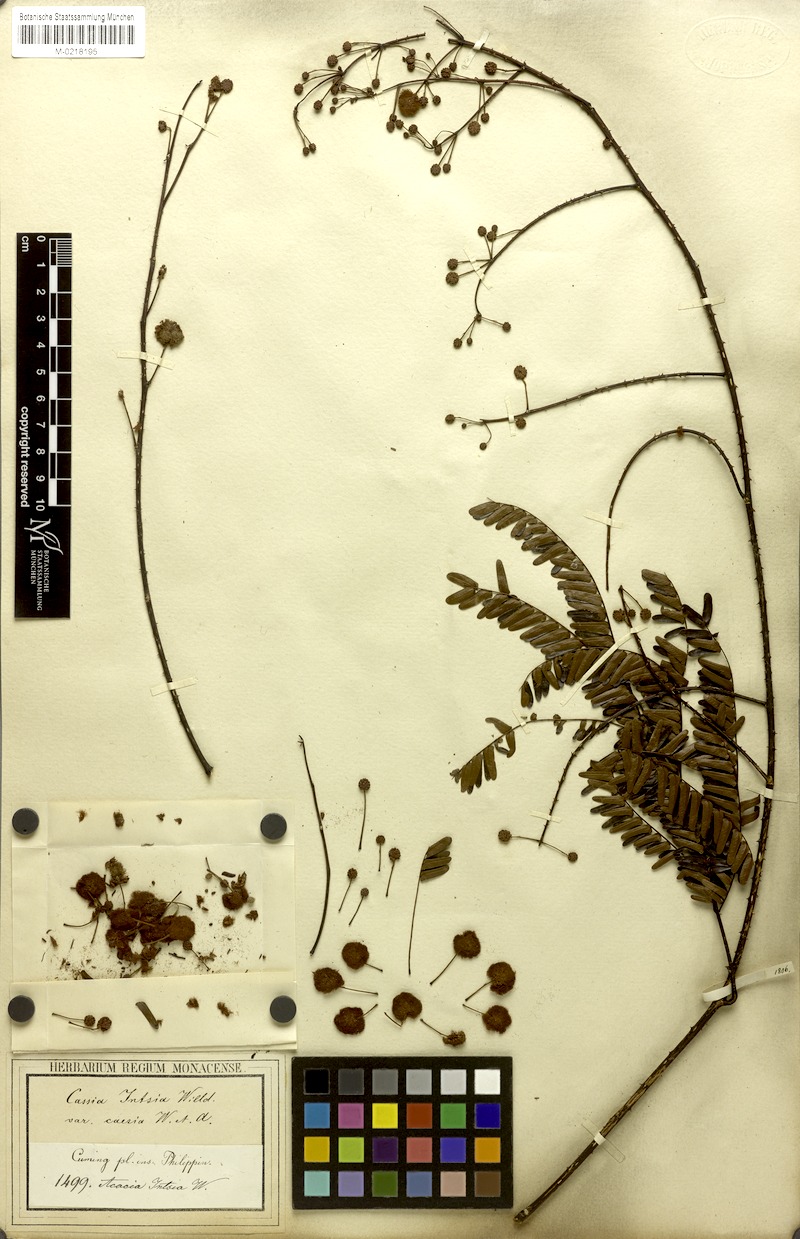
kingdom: Plantae
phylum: Tracheophyta
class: Magnoliopsida
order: Fabales
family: Fabaceae
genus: Senegalia
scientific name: Senegalia caesia
